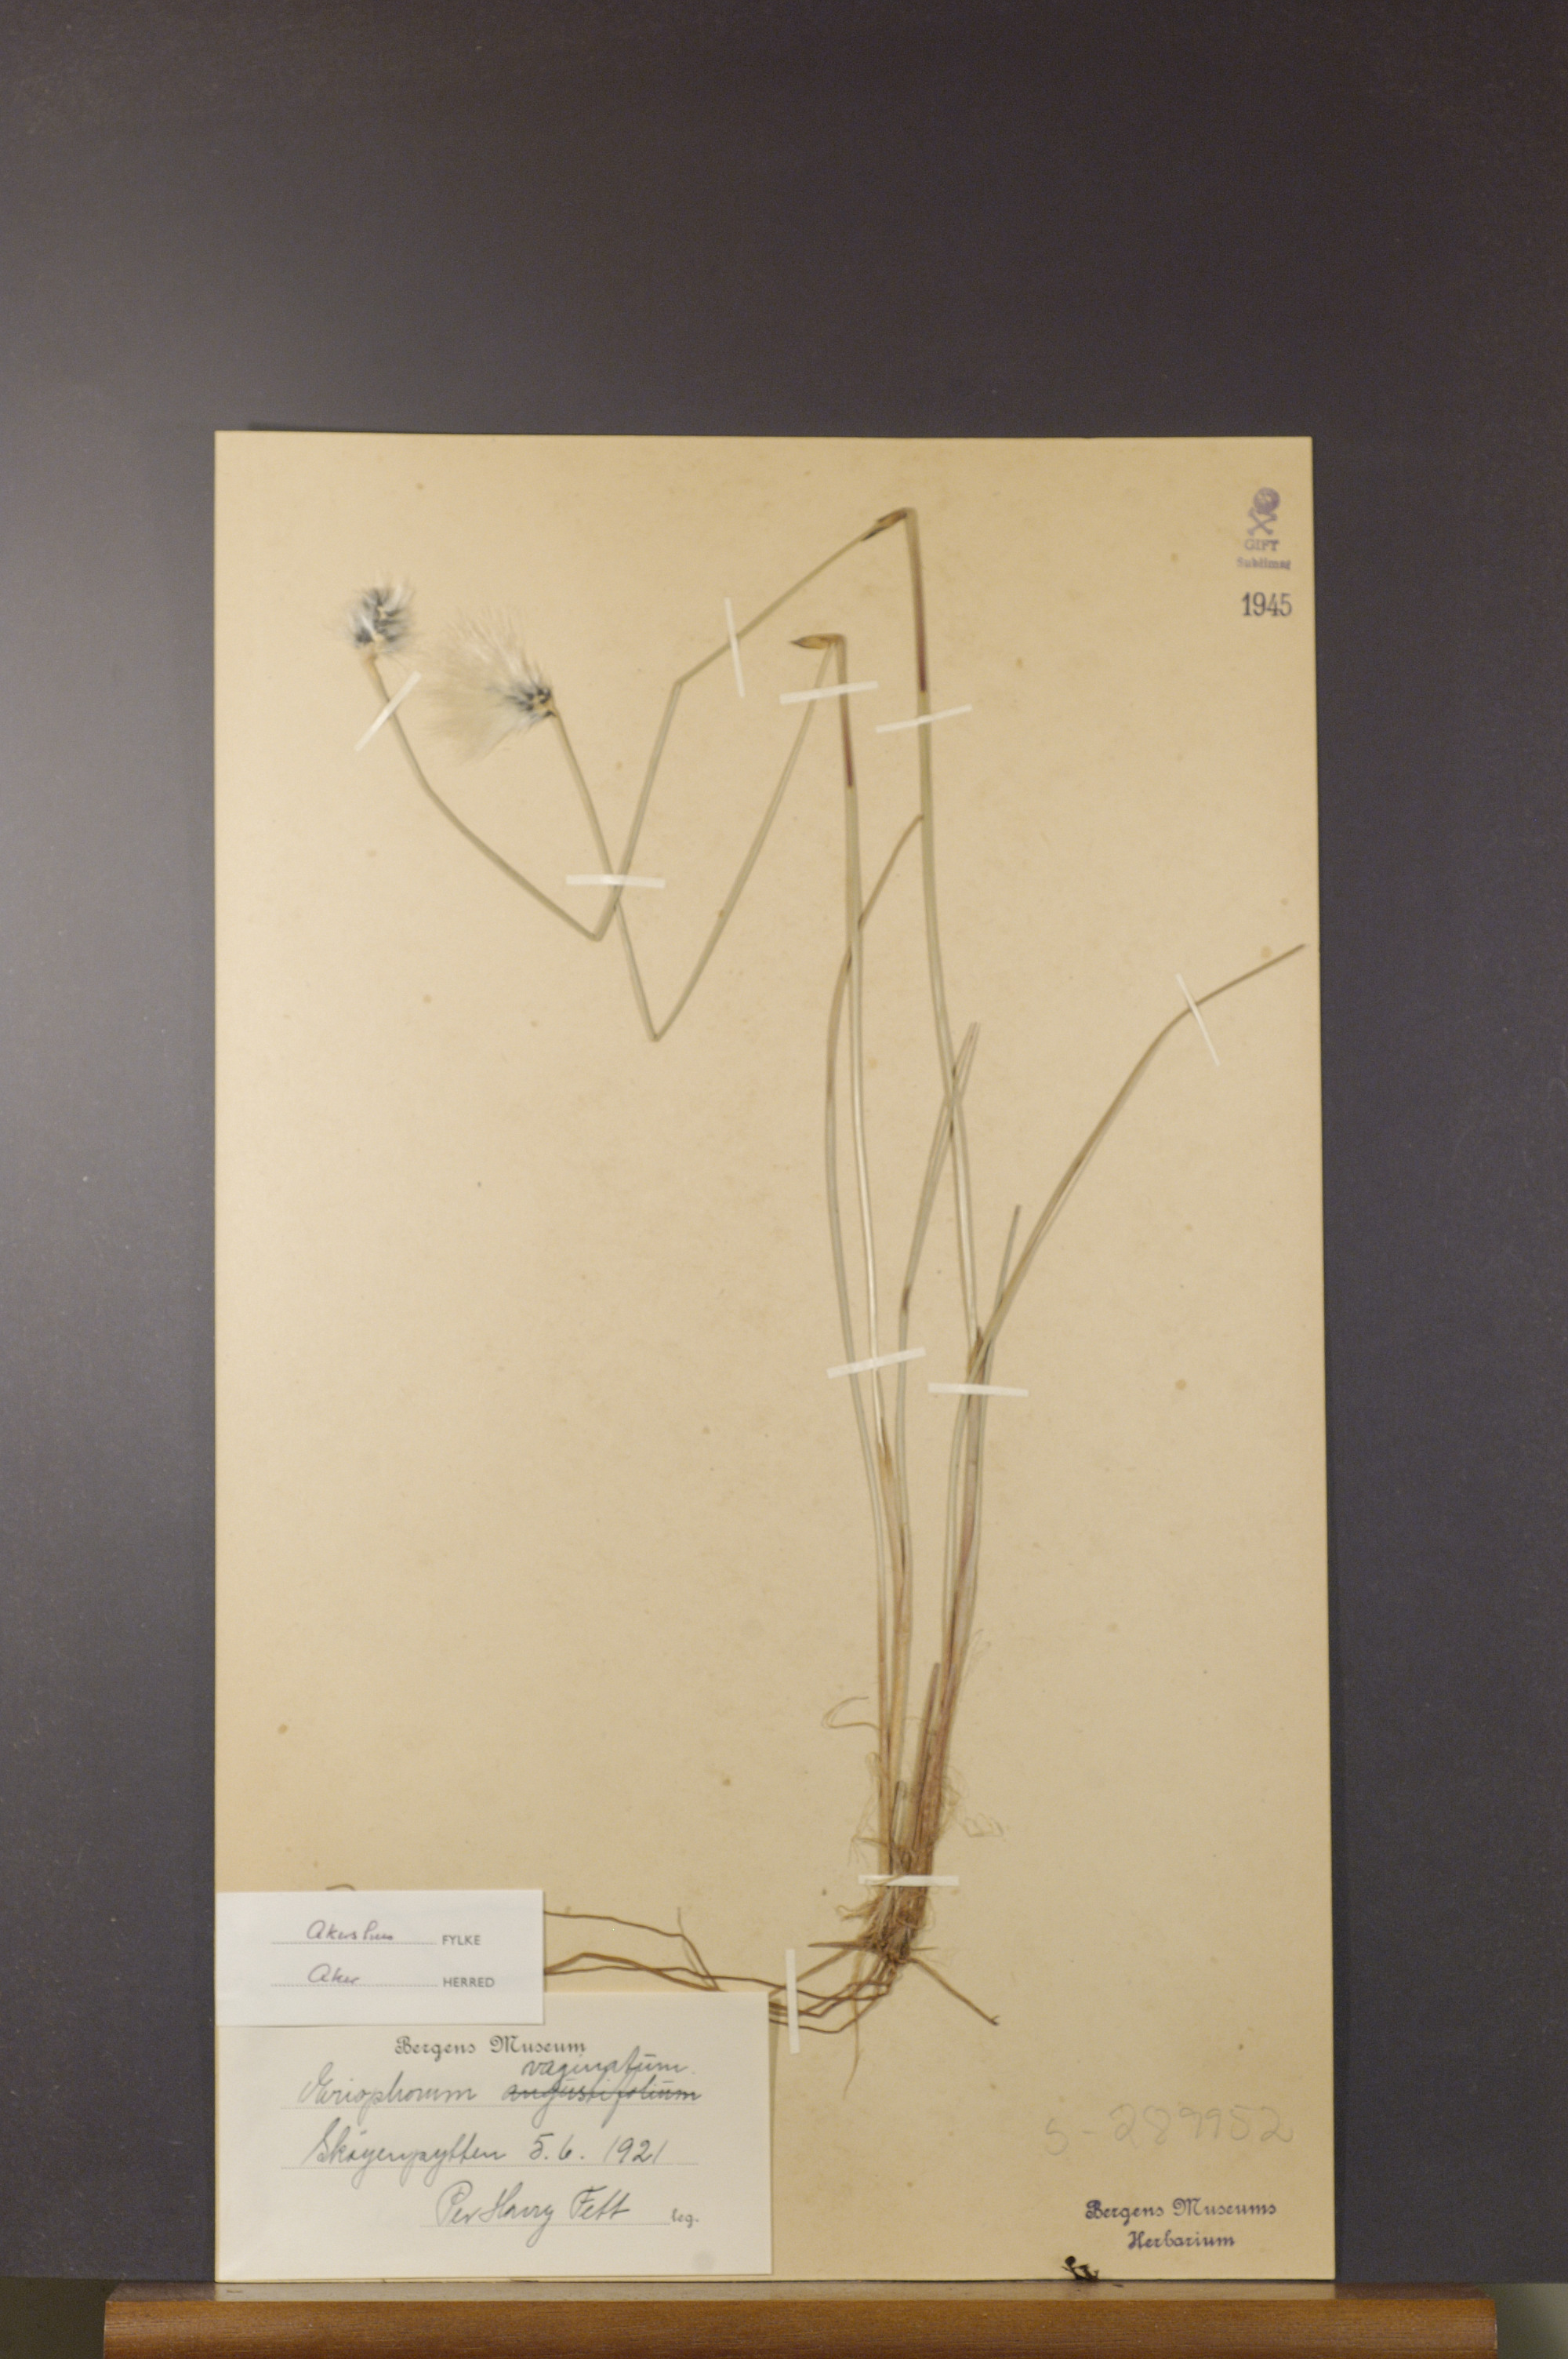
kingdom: Plantae
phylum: Tracheophyta
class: Liliopsida
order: Poales
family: Cyperaceae
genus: Eriophorum
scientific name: Eriophorum vaginatum
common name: Hare's-tail cottongrass
